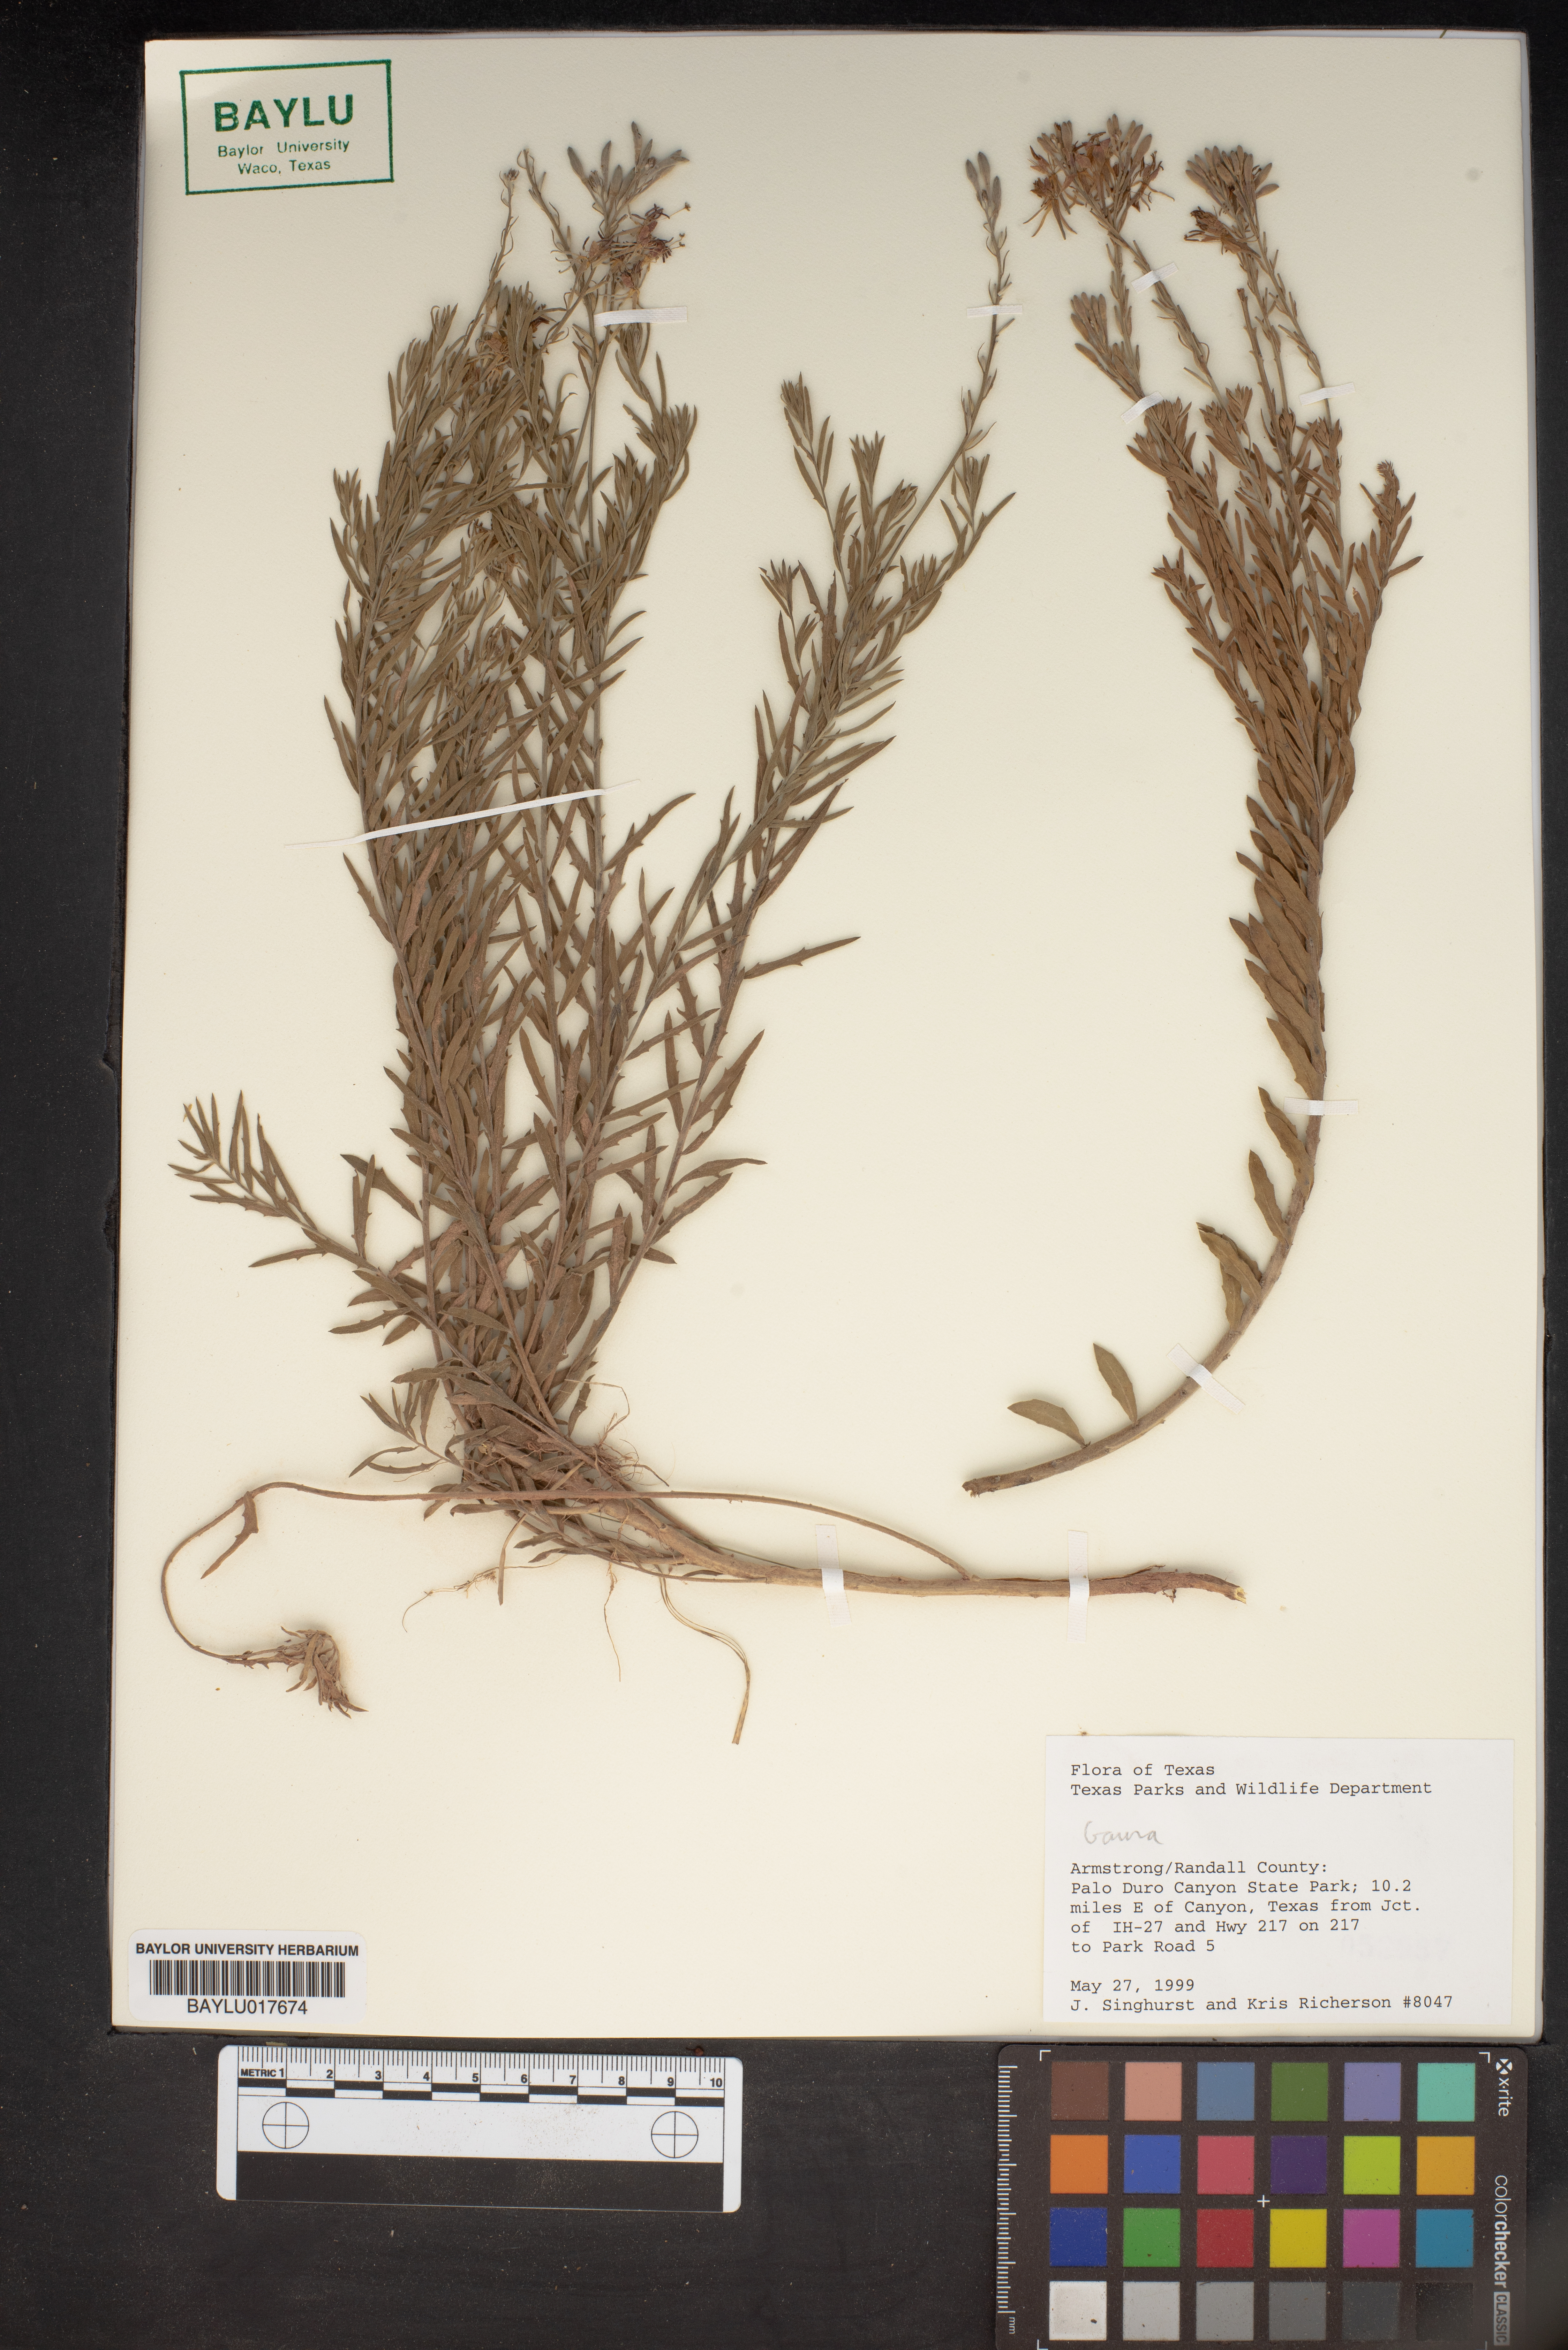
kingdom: Plantae
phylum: Tracheophyta
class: Magnoliopsida
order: Myrtales
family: Onagraceae
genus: Oenothera
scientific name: Oenothera
